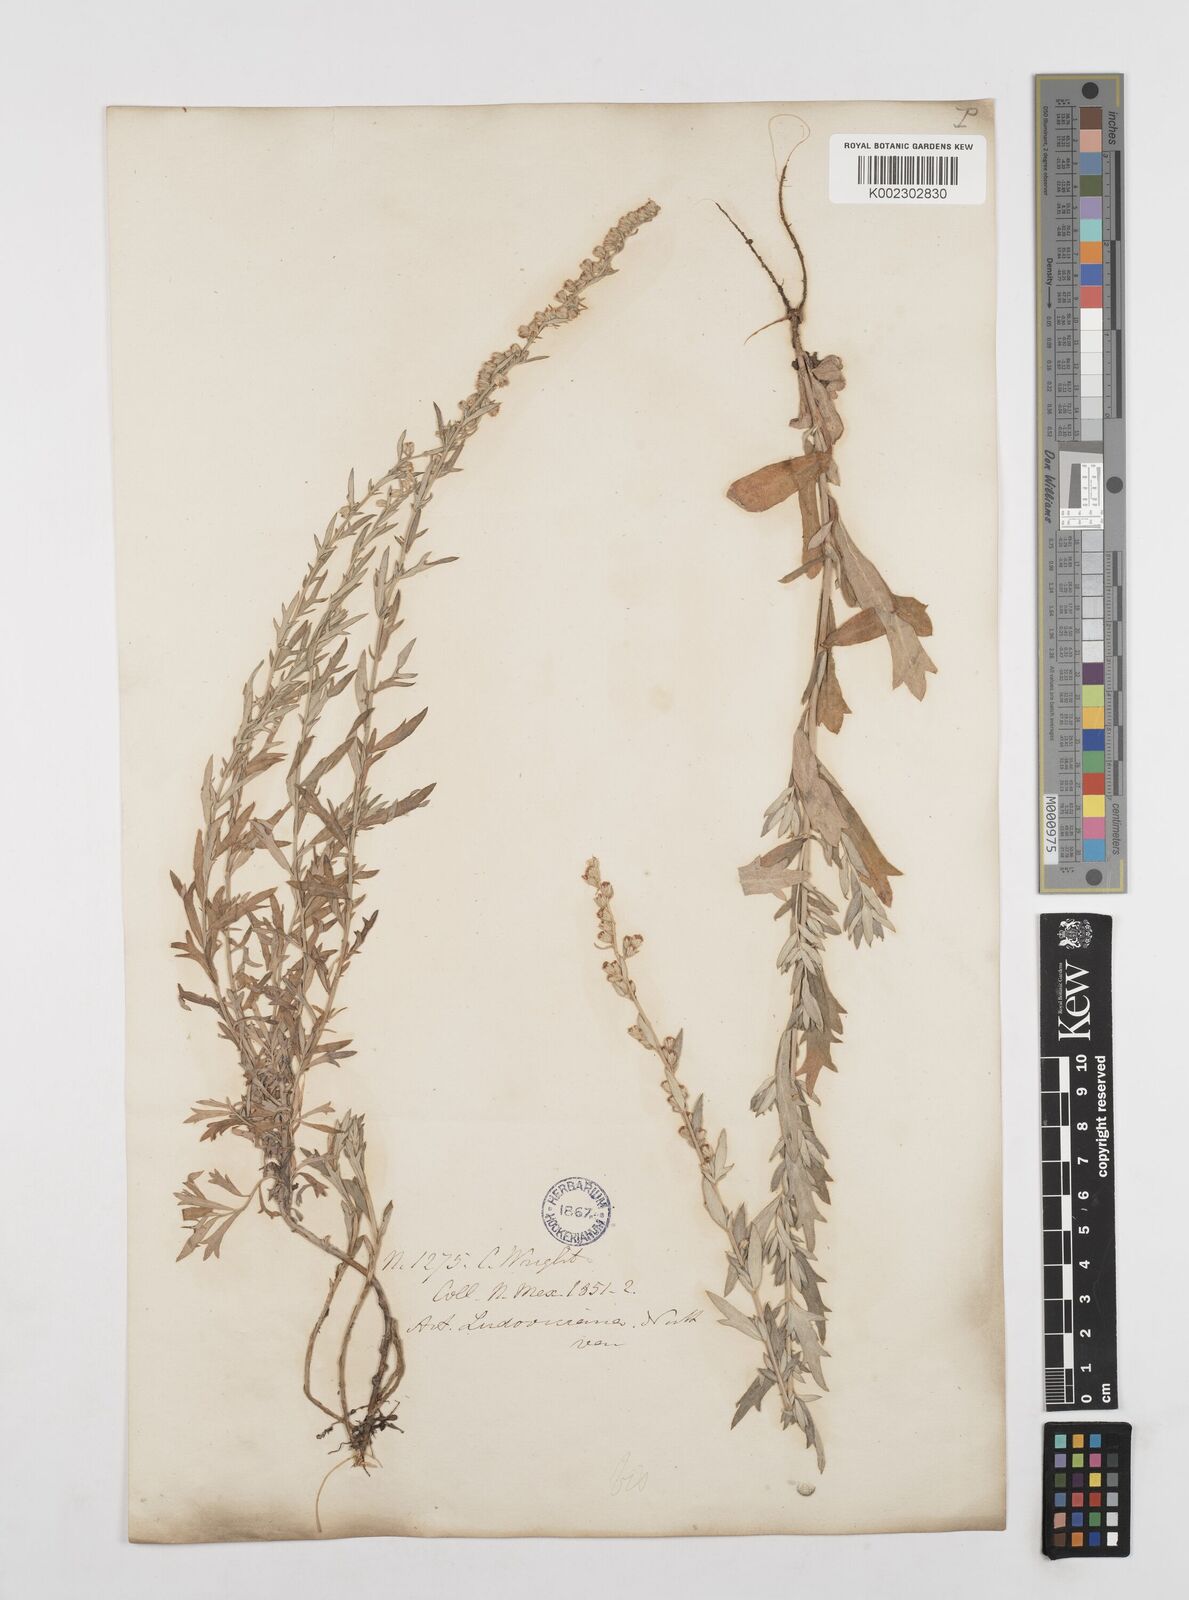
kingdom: Plantae
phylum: Tracheophyta
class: Magnoliopsida
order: Asterales
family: Asteraceae
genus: Artemisia
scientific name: Artemisia ludoviciana
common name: Western mugwort
